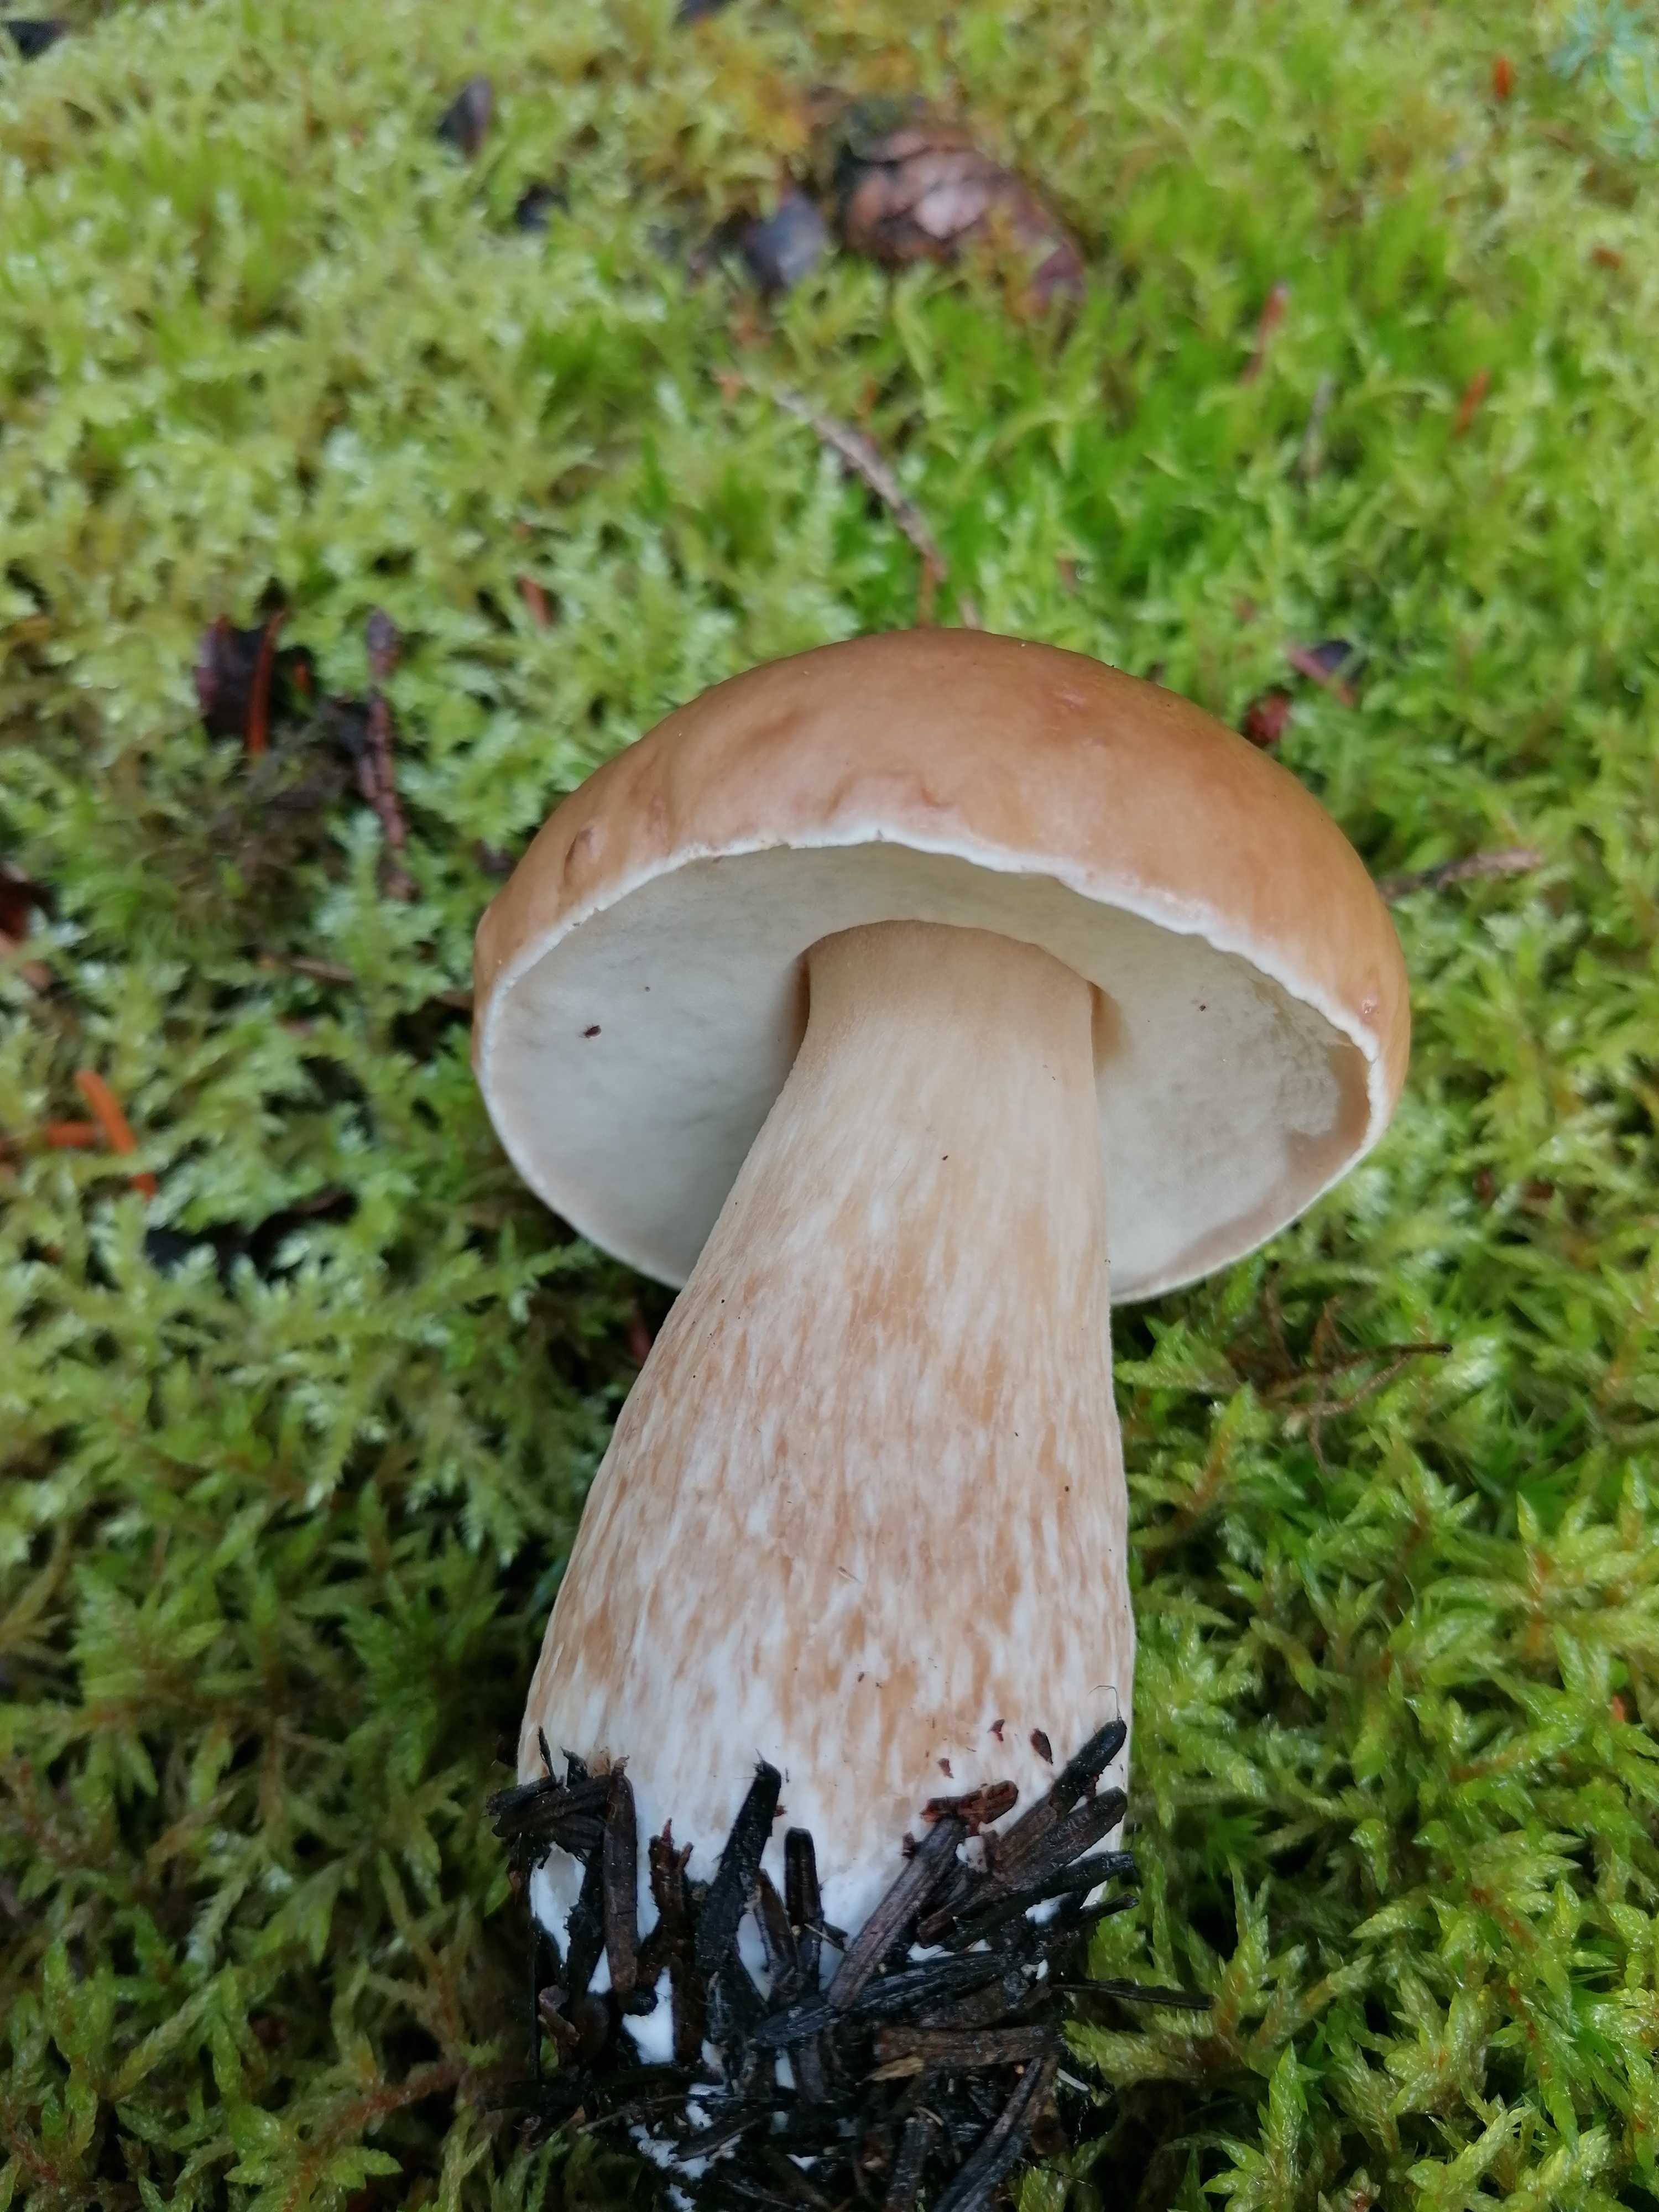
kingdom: Fungi
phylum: Basidiomycota
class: Agaricomycetes
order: Boletales
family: Boletaceae
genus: Boletus
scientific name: Boletus edulis
